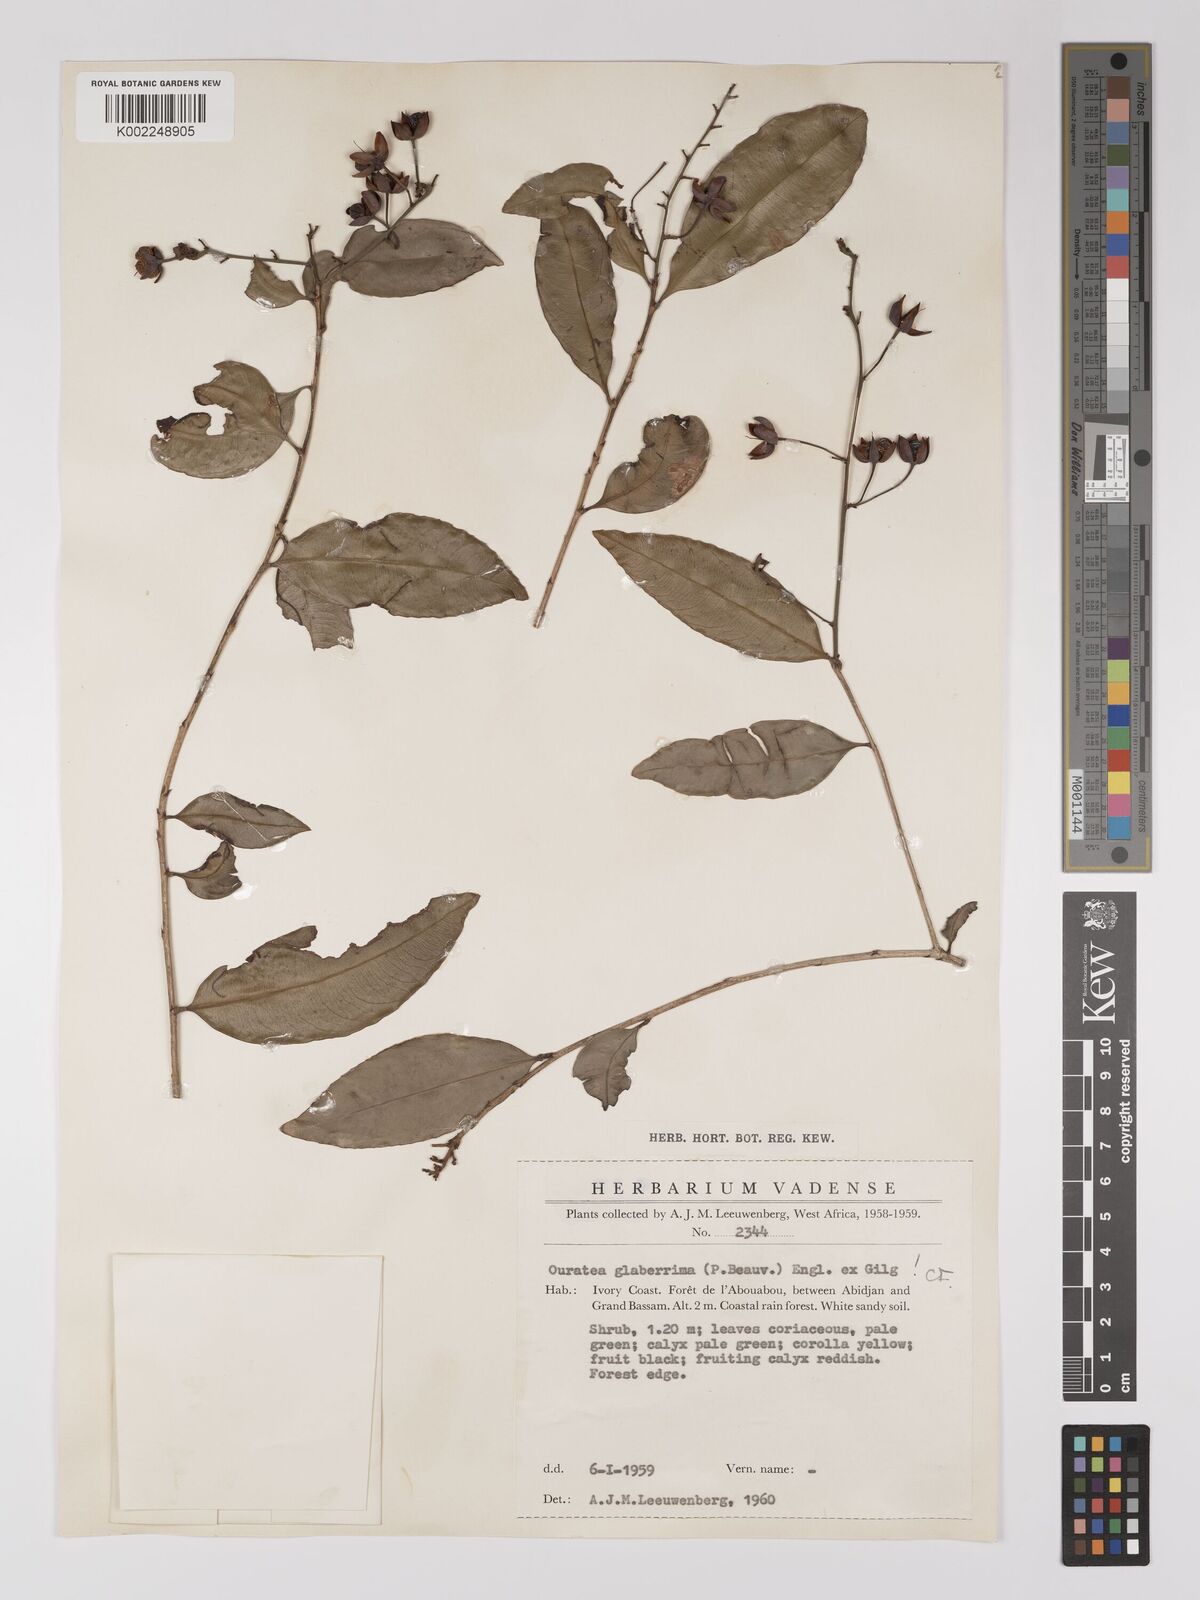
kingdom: Plantae
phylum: Tracheophyta
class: Magnoliopsida
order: Malpighiales
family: Ochnaceae
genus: Campylospermum
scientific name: Campylospermum glaberrimum
